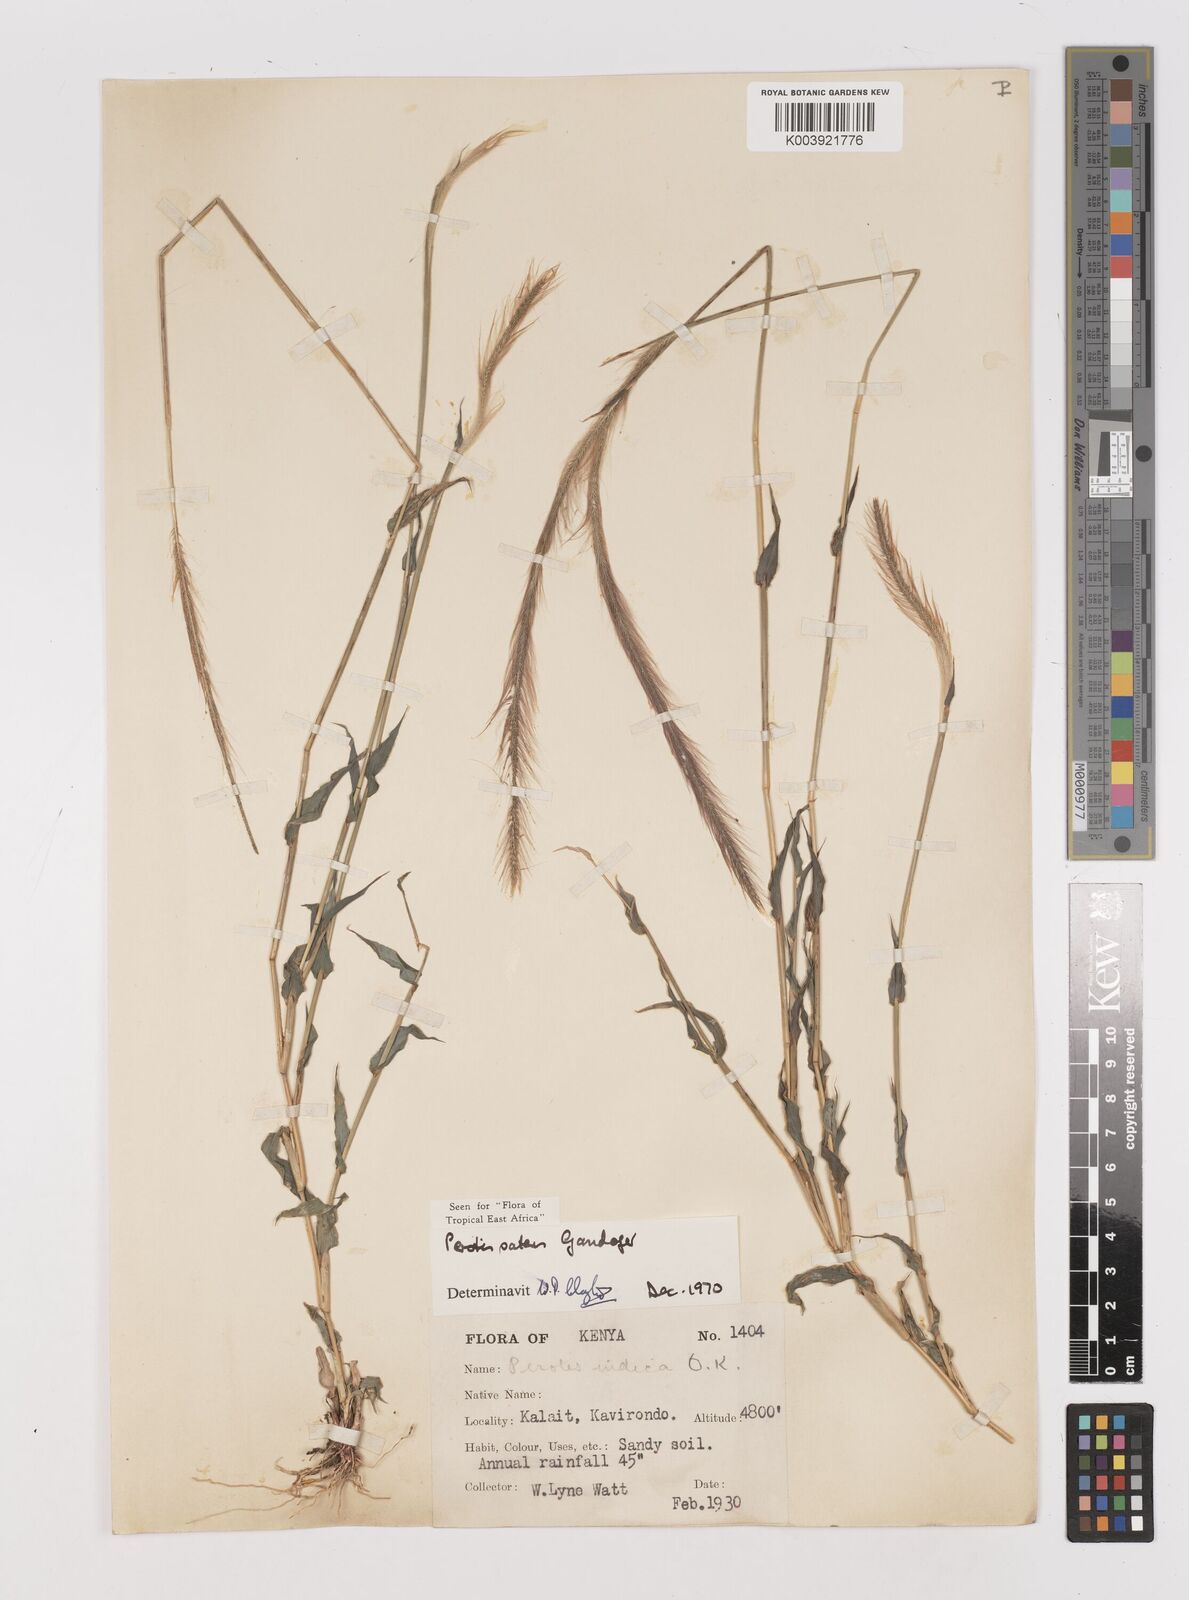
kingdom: Plantae
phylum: Tracheophyta
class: Liliopsida
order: Poales
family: Poaceae
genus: Perotis
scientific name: Perotis patens
